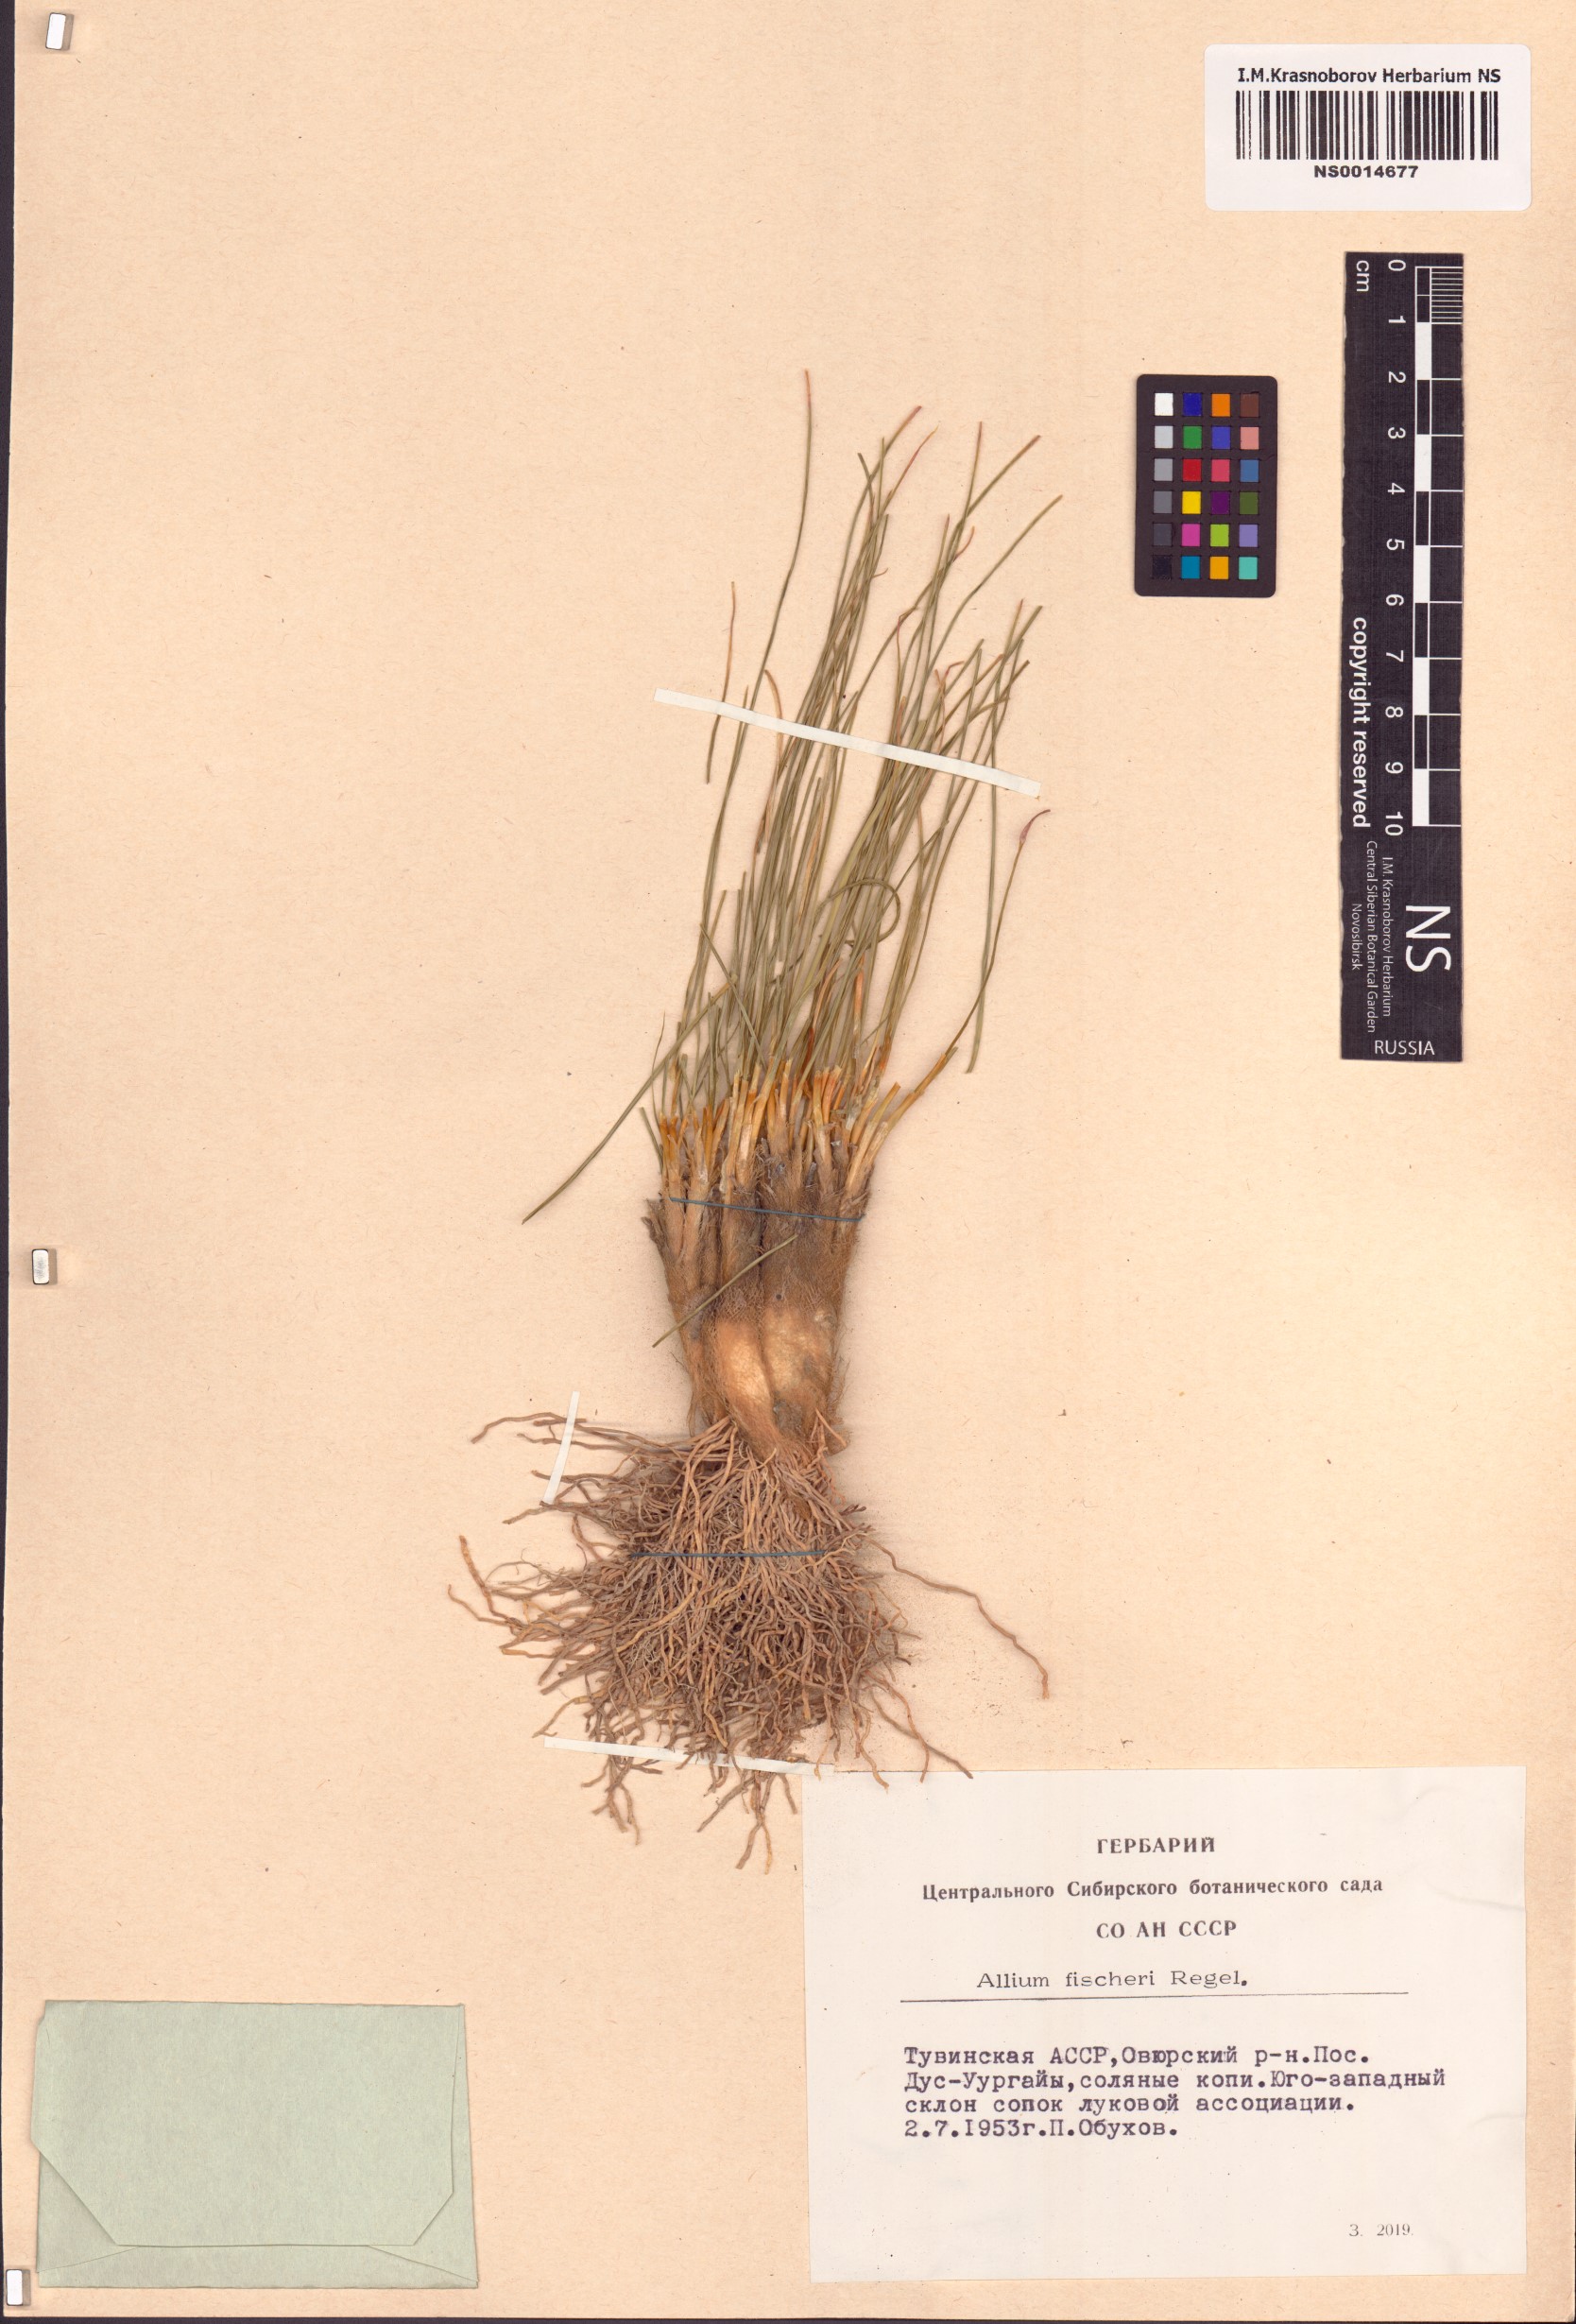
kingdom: Plantae
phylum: Tracheophyta
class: Liliopsida
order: Asparagales
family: Amaryllidaceae
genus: Allium
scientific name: Allium eduardi
